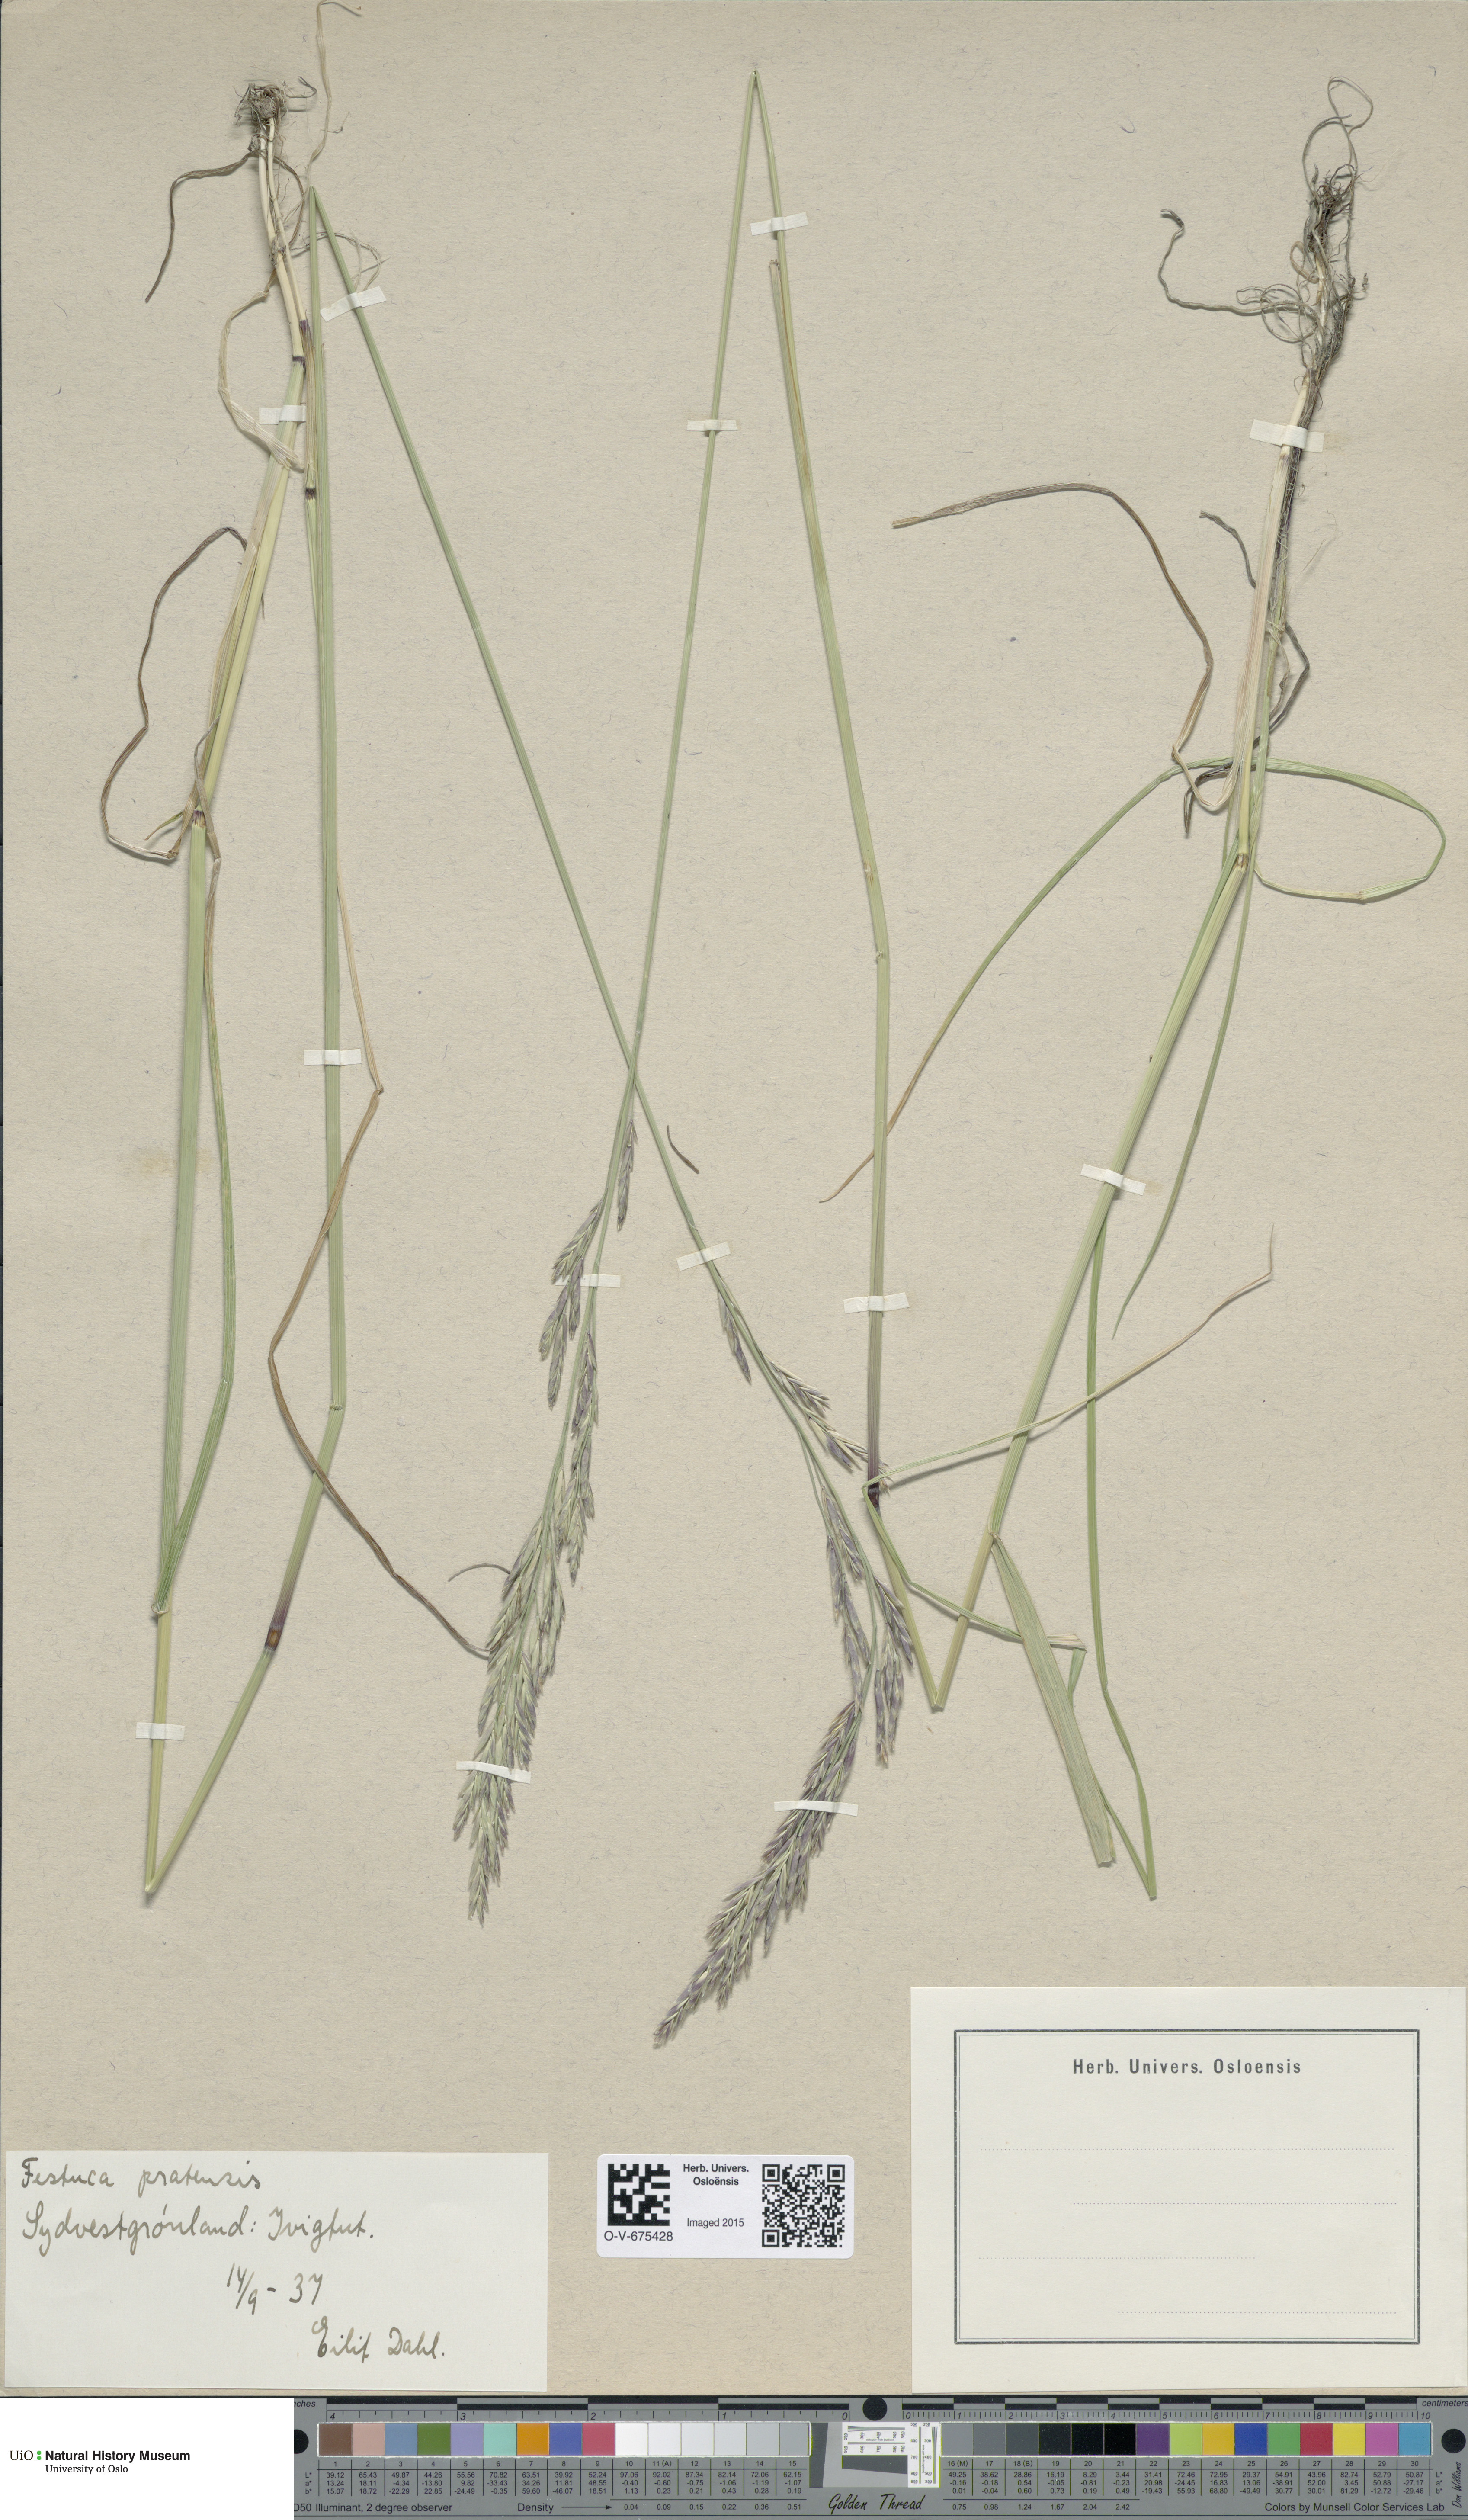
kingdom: Plantae
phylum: Tracheophyta
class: Liliopsida
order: Poales
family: Poaceae
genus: Lolium
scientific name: Lolium pratense
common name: Dover grass
